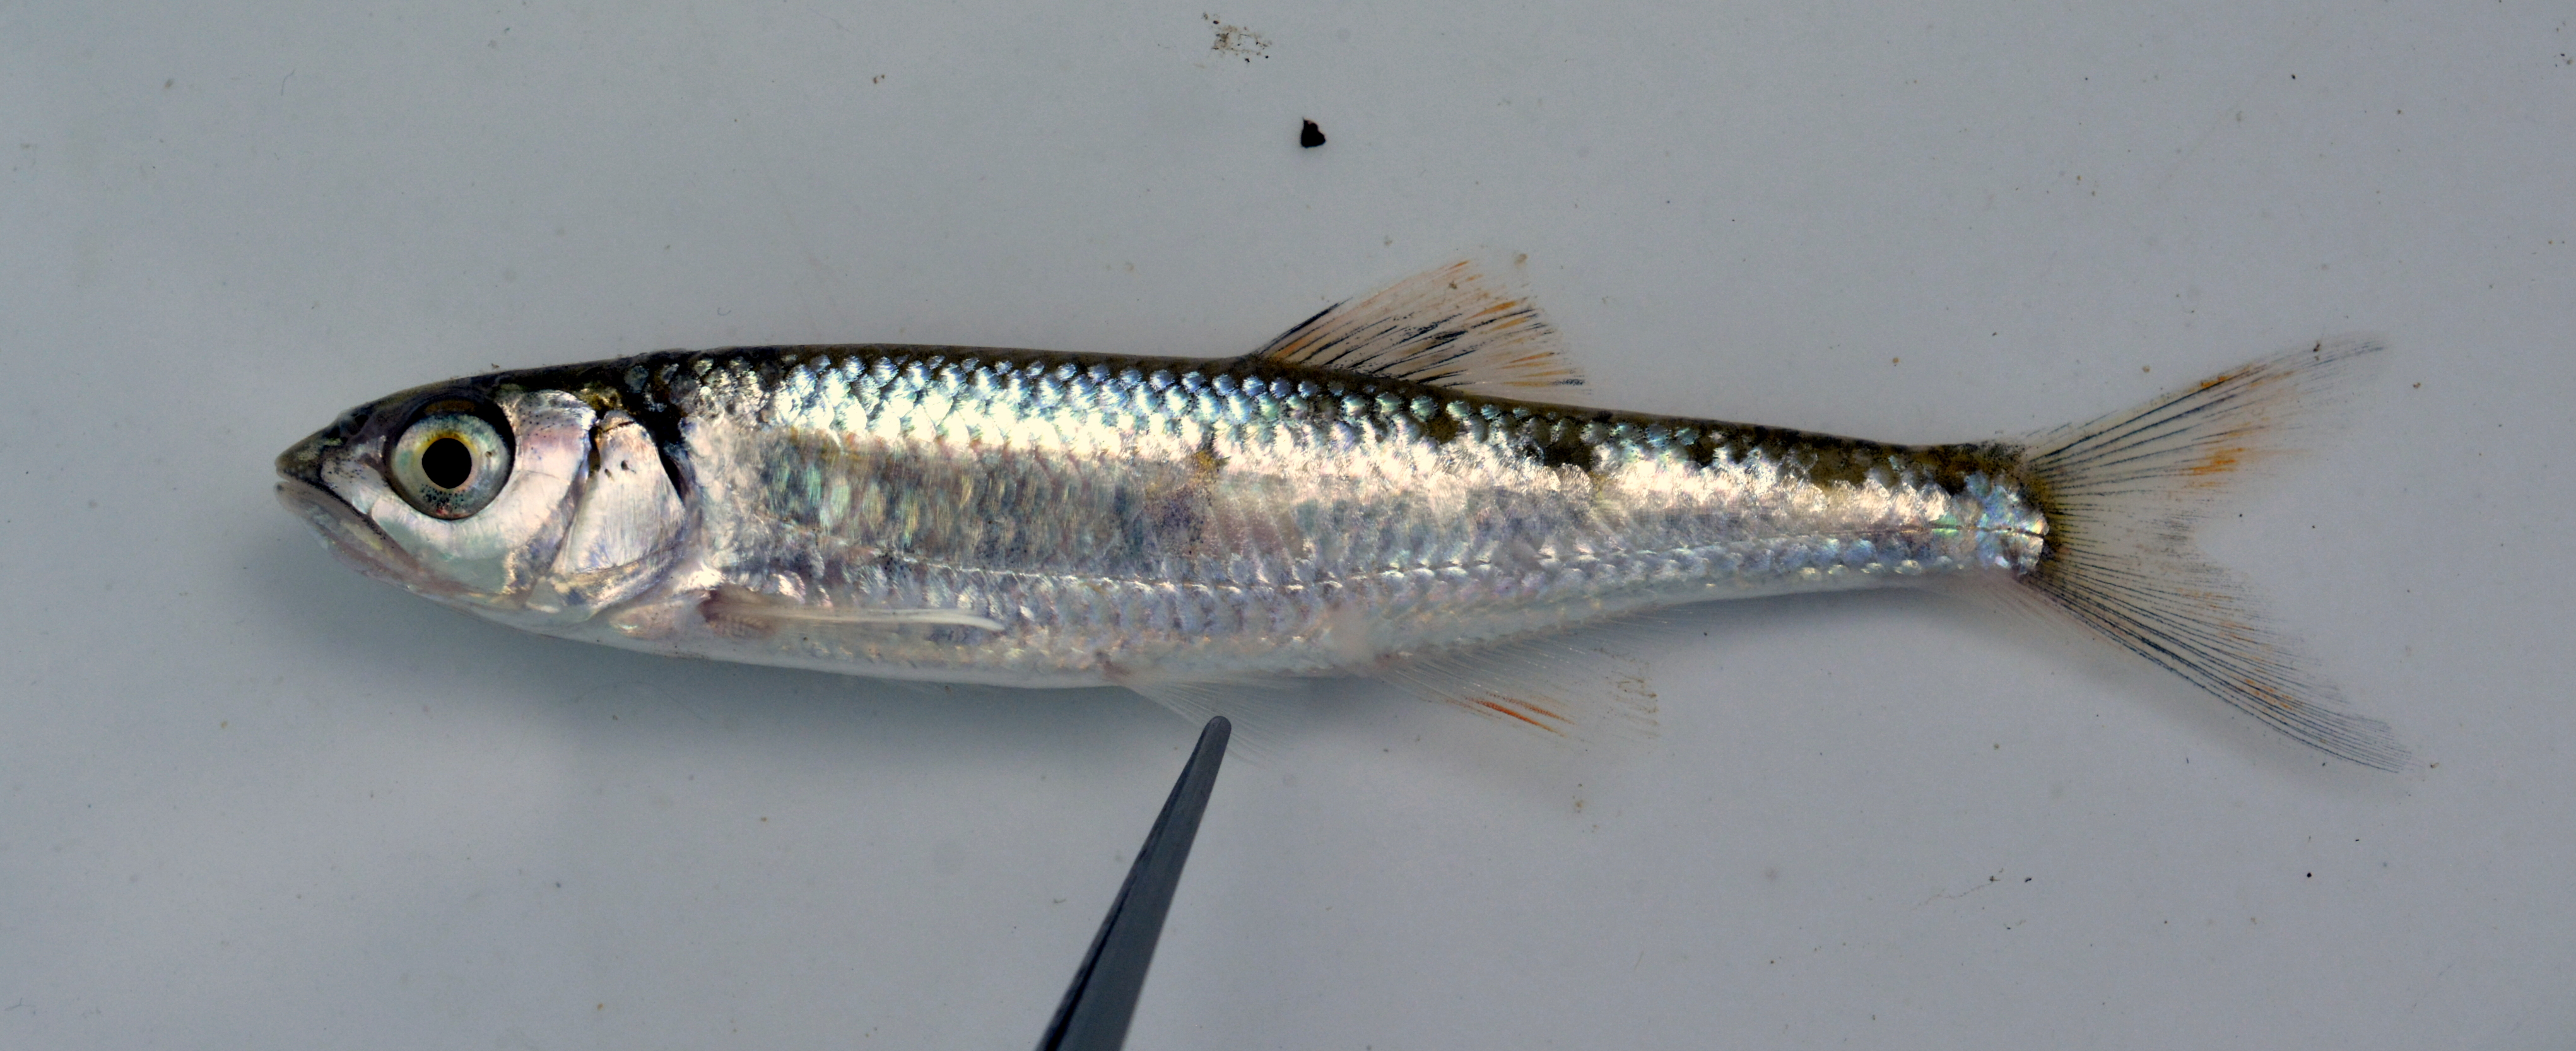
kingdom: Animalia
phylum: Chordata
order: Cypriniformes
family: Cyprinidae
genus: Opsaridium
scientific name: Opsaridium zambezense
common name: Barred minnow
